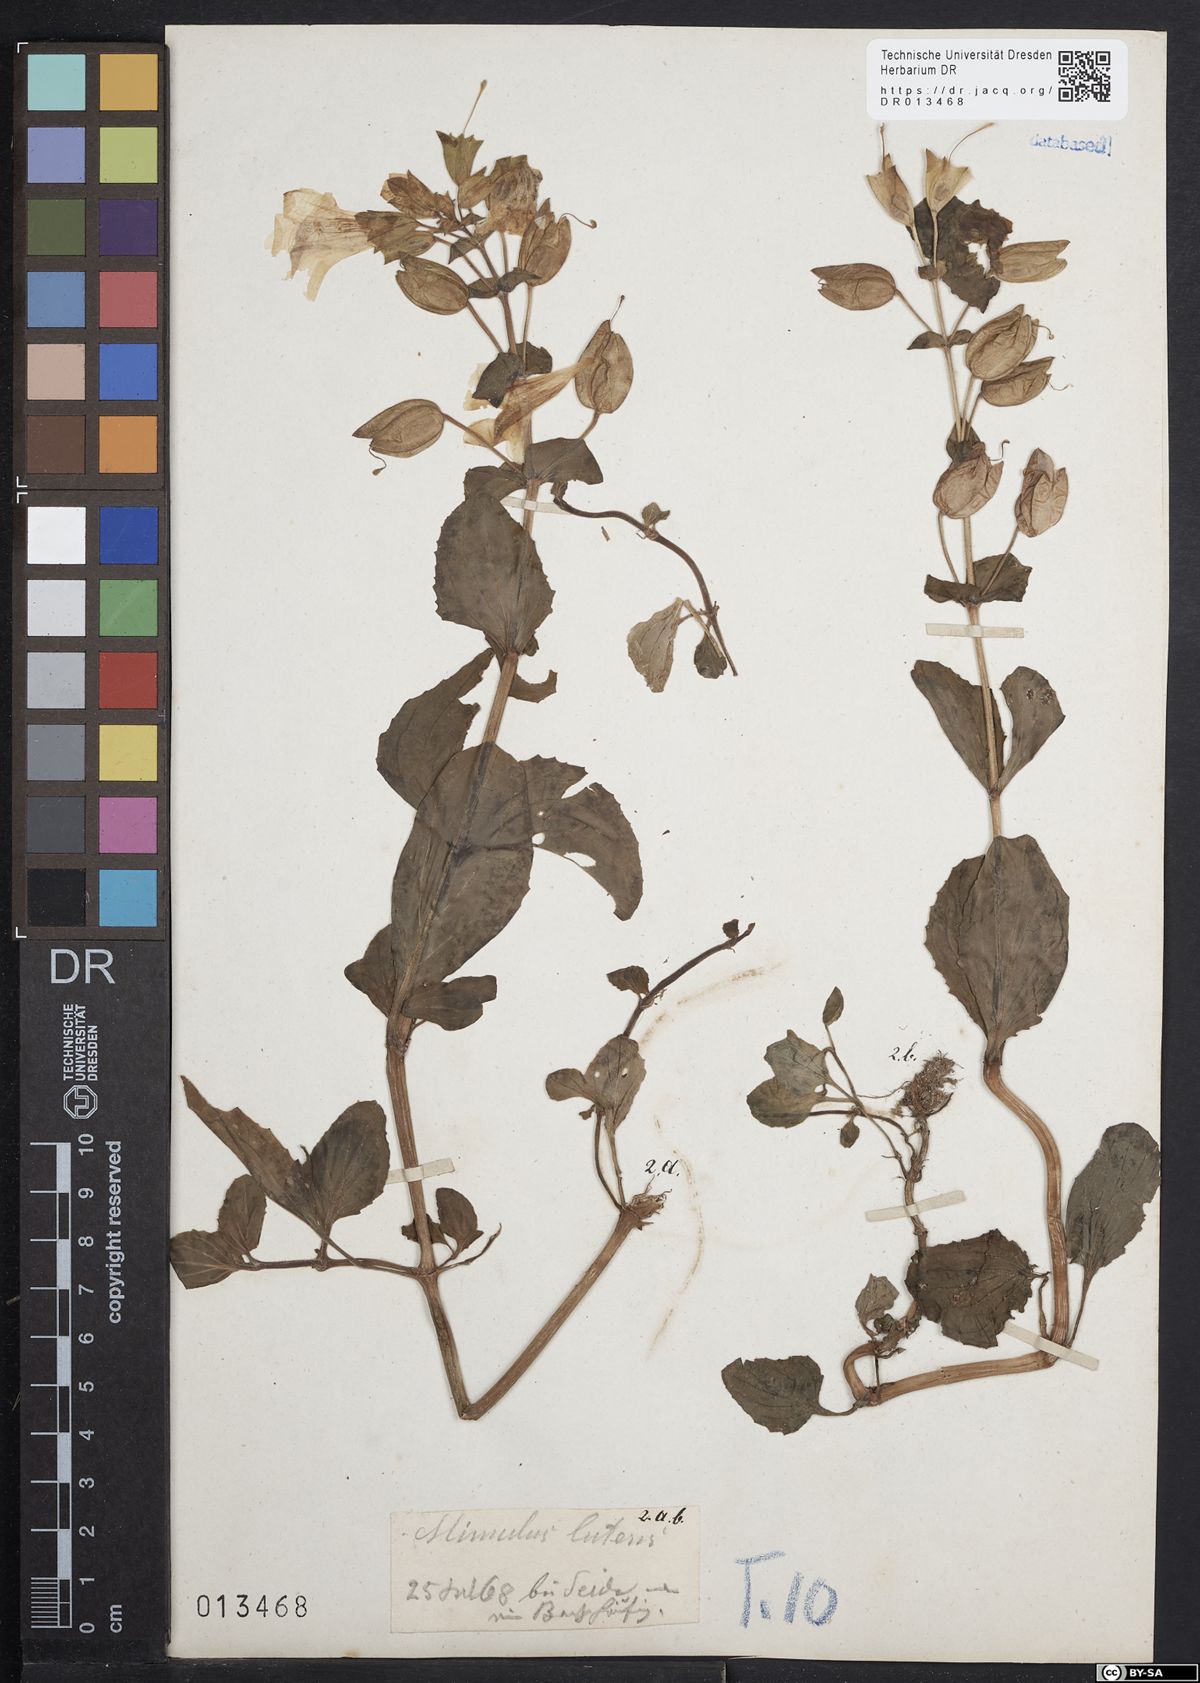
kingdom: Plantae
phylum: Tracheophyta
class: Magnoliopsida
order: Lamiales
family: Phrymaceae
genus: Erythranthe
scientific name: Erythranthe guttata
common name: Monkeyflower
